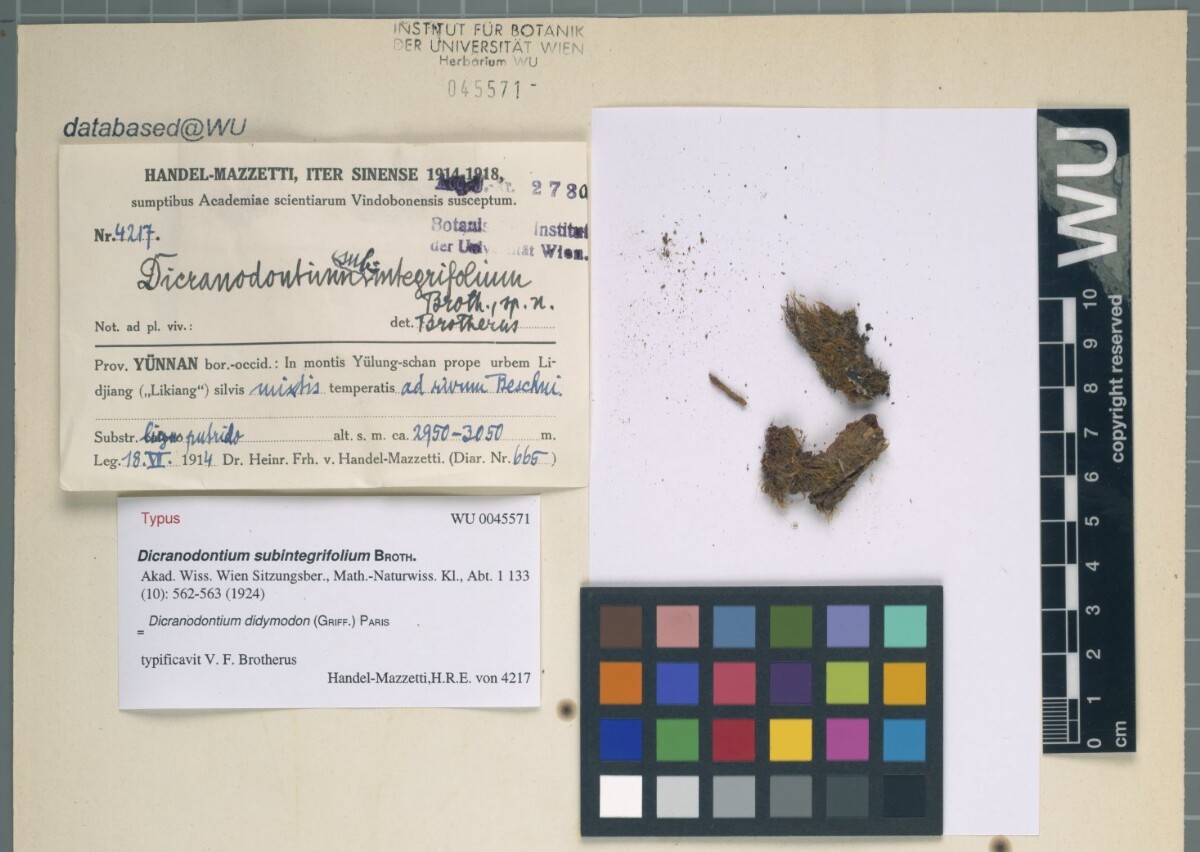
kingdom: Plantae
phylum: Bryophyta
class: Bryopsida
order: Dicranales
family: Leucobryaceae
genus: Dicranodontium
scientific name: Dicranodontium didictyon
